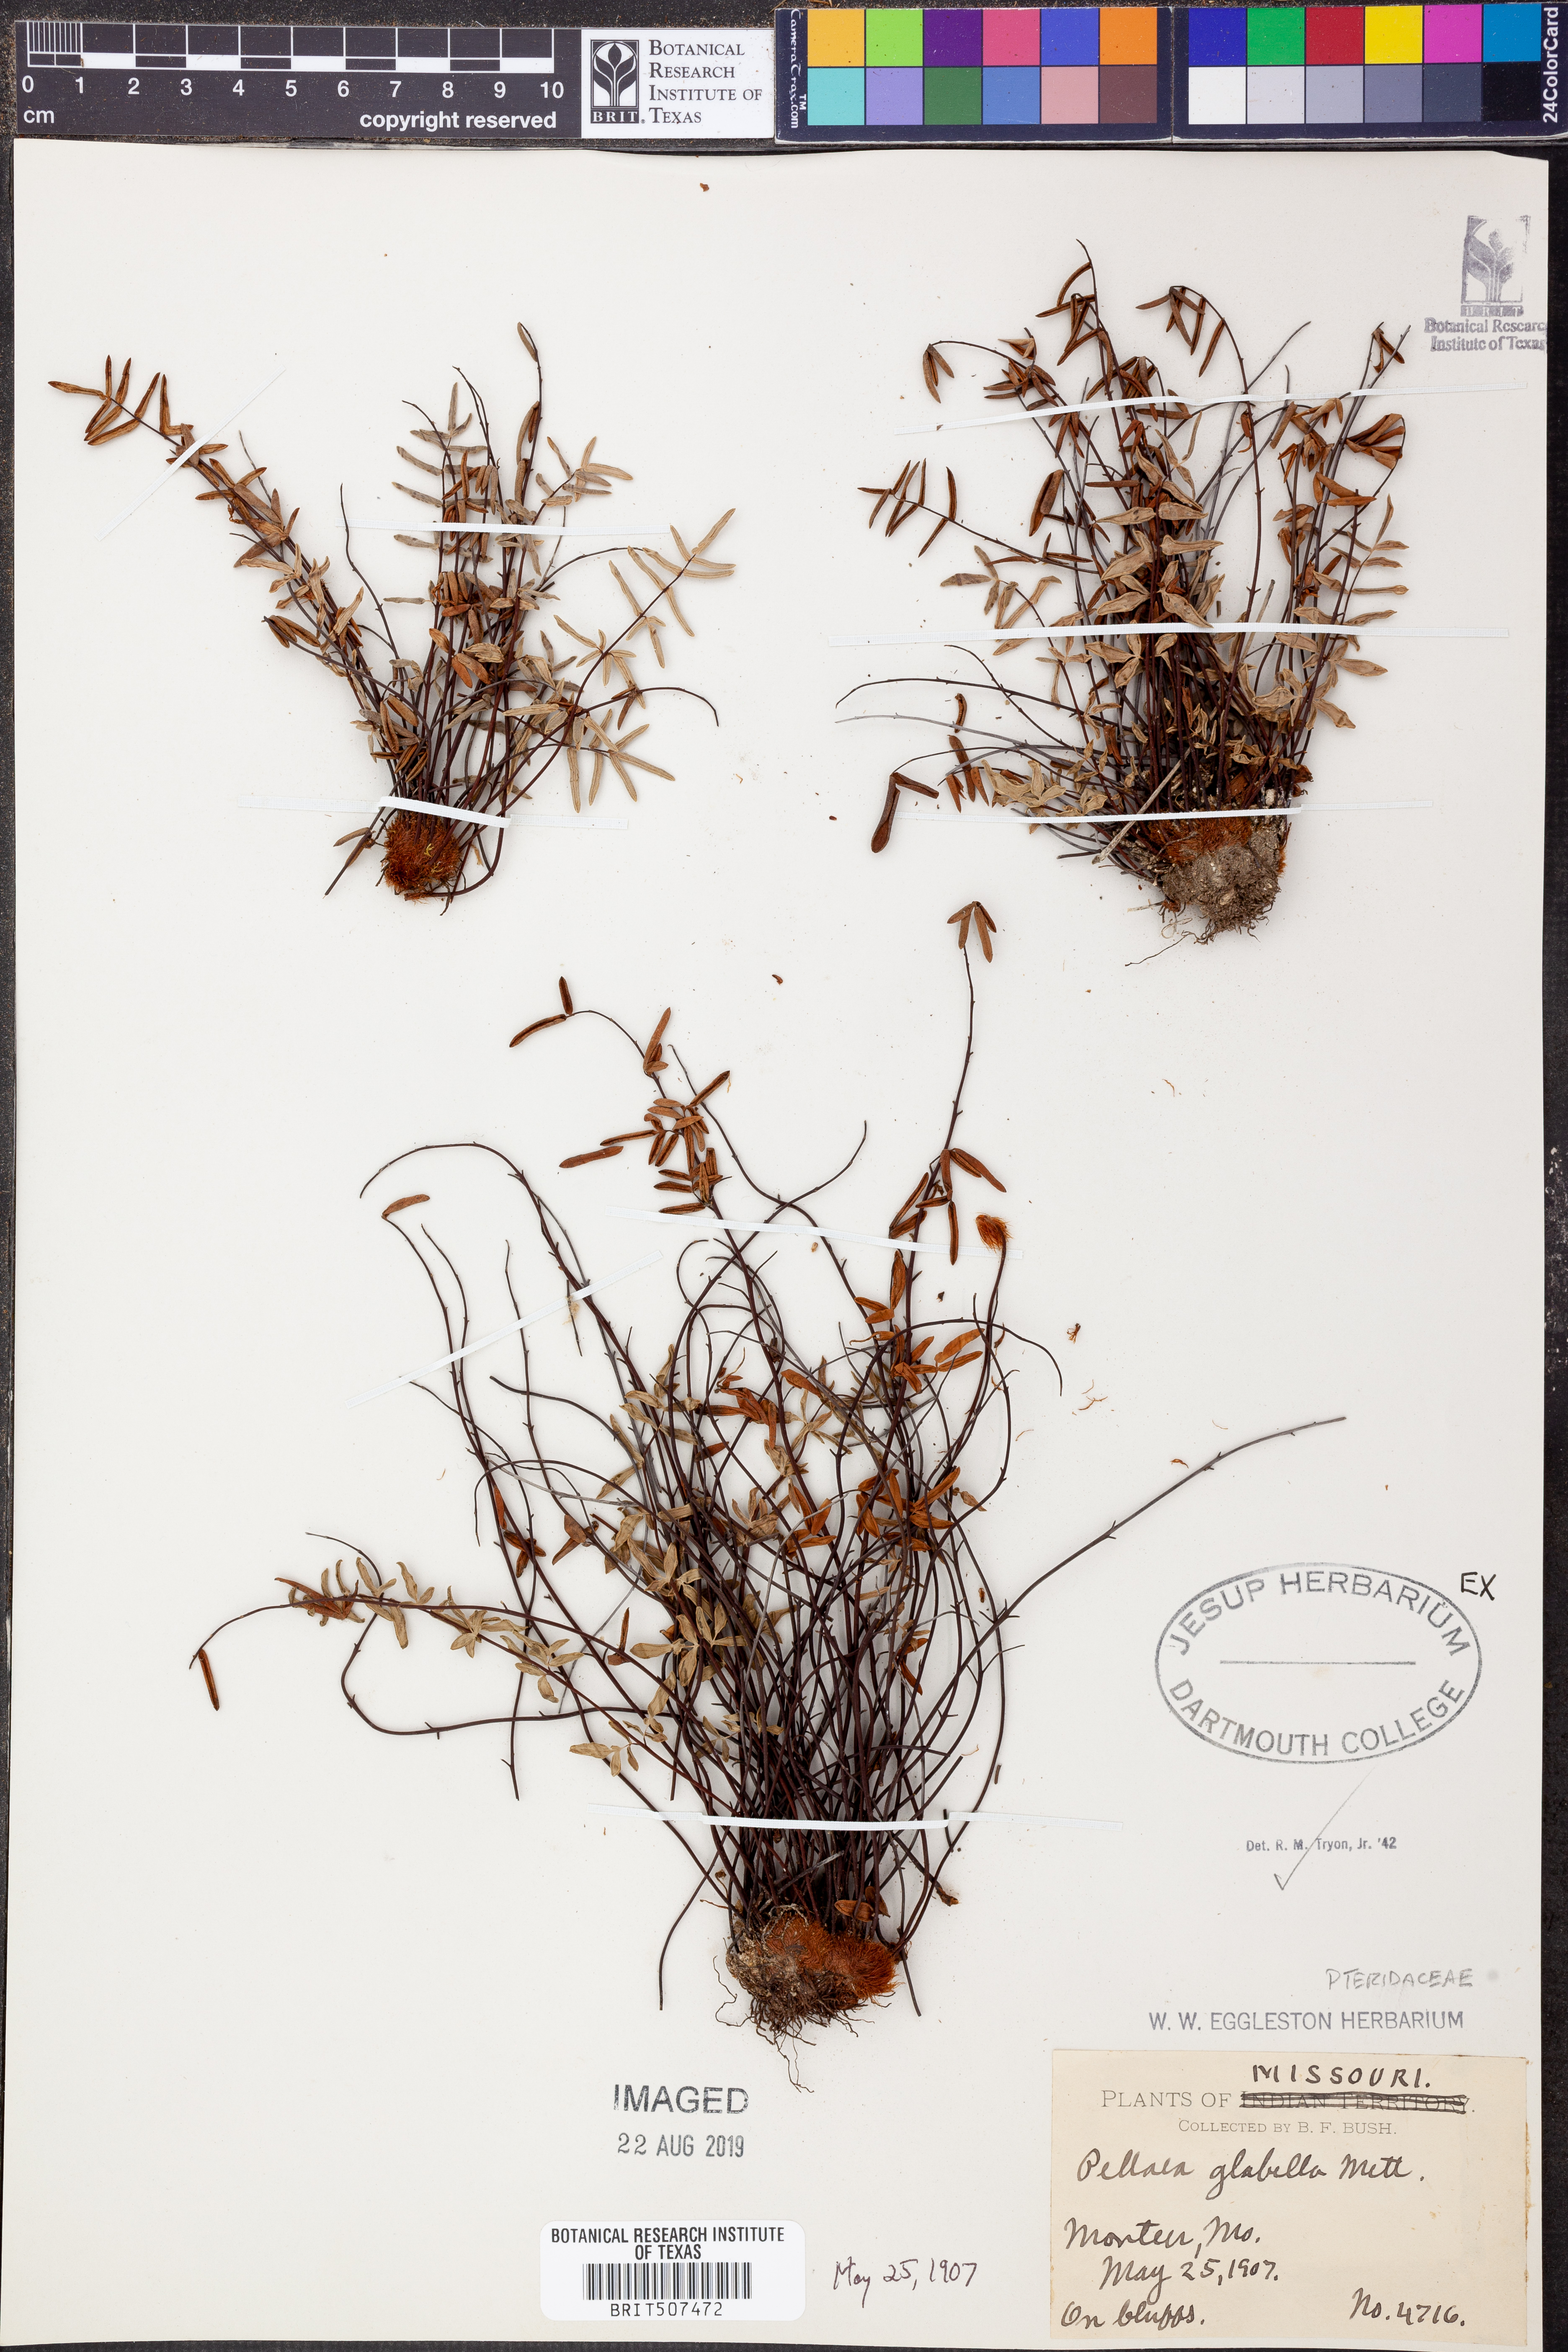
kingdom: Plantae
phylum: Tracheophyta
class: Polypodiopsida
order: Polypodiales
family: Pteridaceae
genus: Pellaea
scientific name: Pellaea glabella
